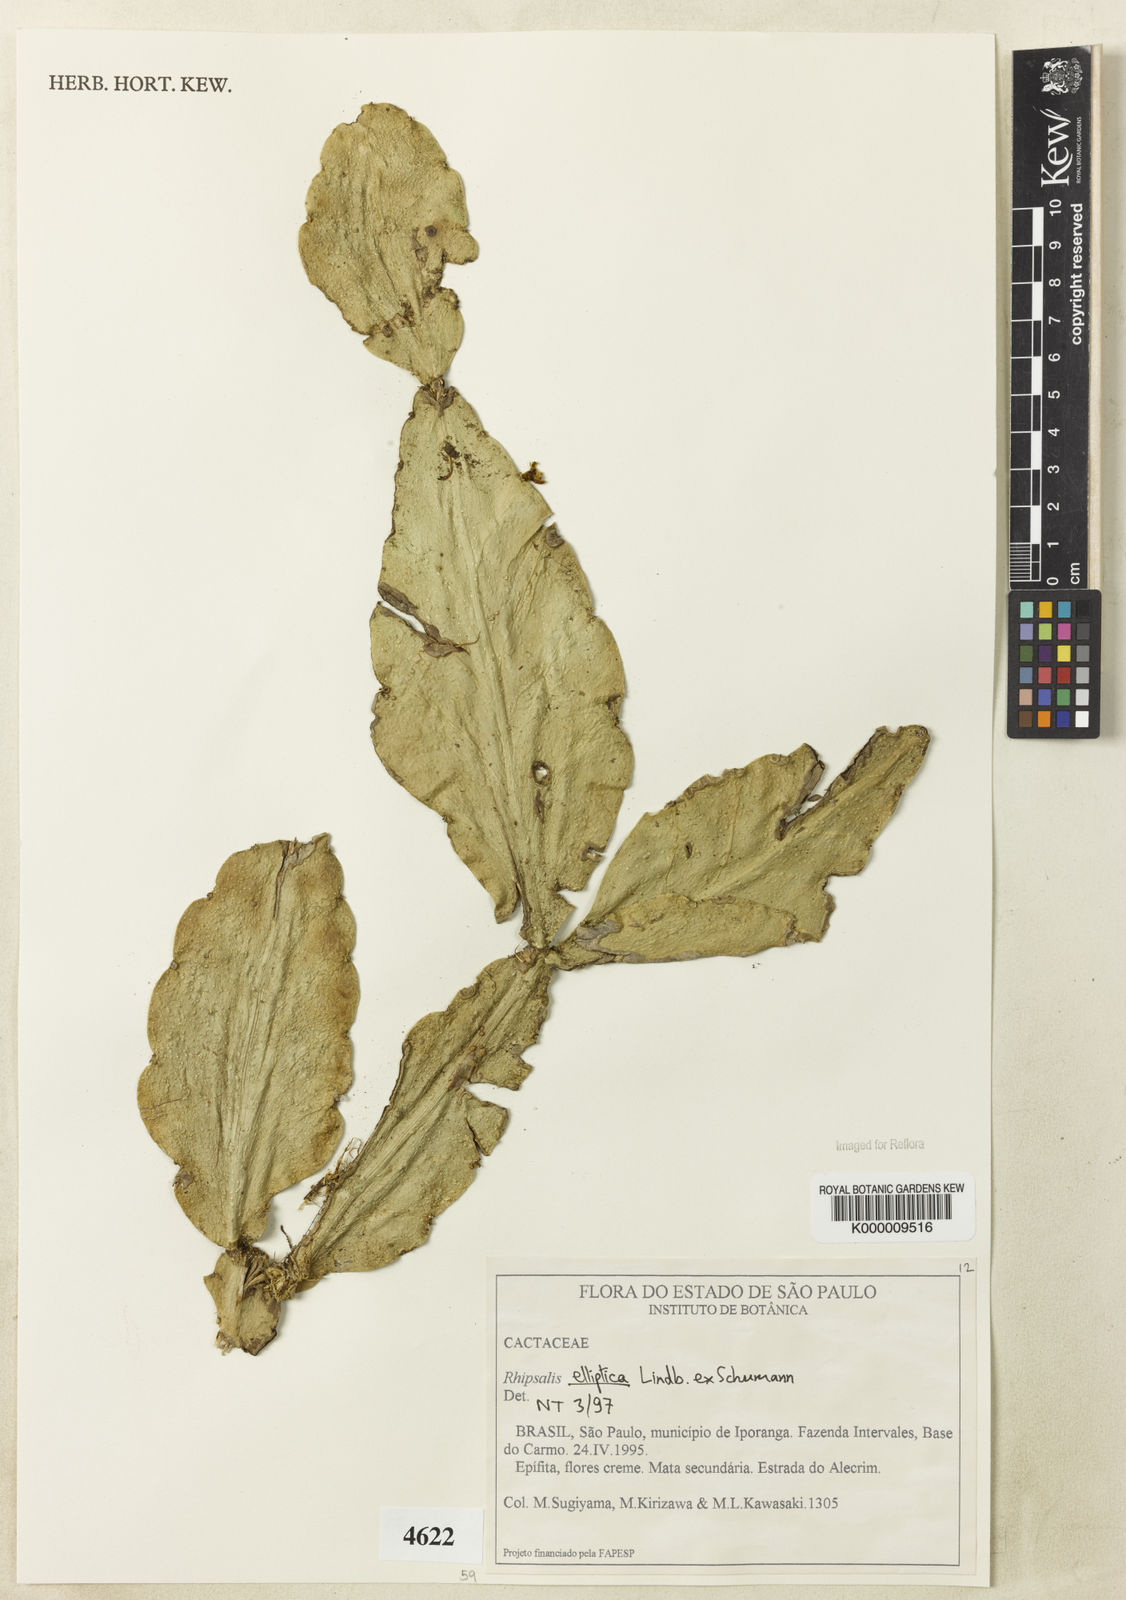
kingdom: Plantae
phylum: Tracheophyta
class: Magnoliopsida
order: Caryophyllales
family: Cactaceae
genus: Rhipsalis
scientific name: Rhipsalis elliptica
